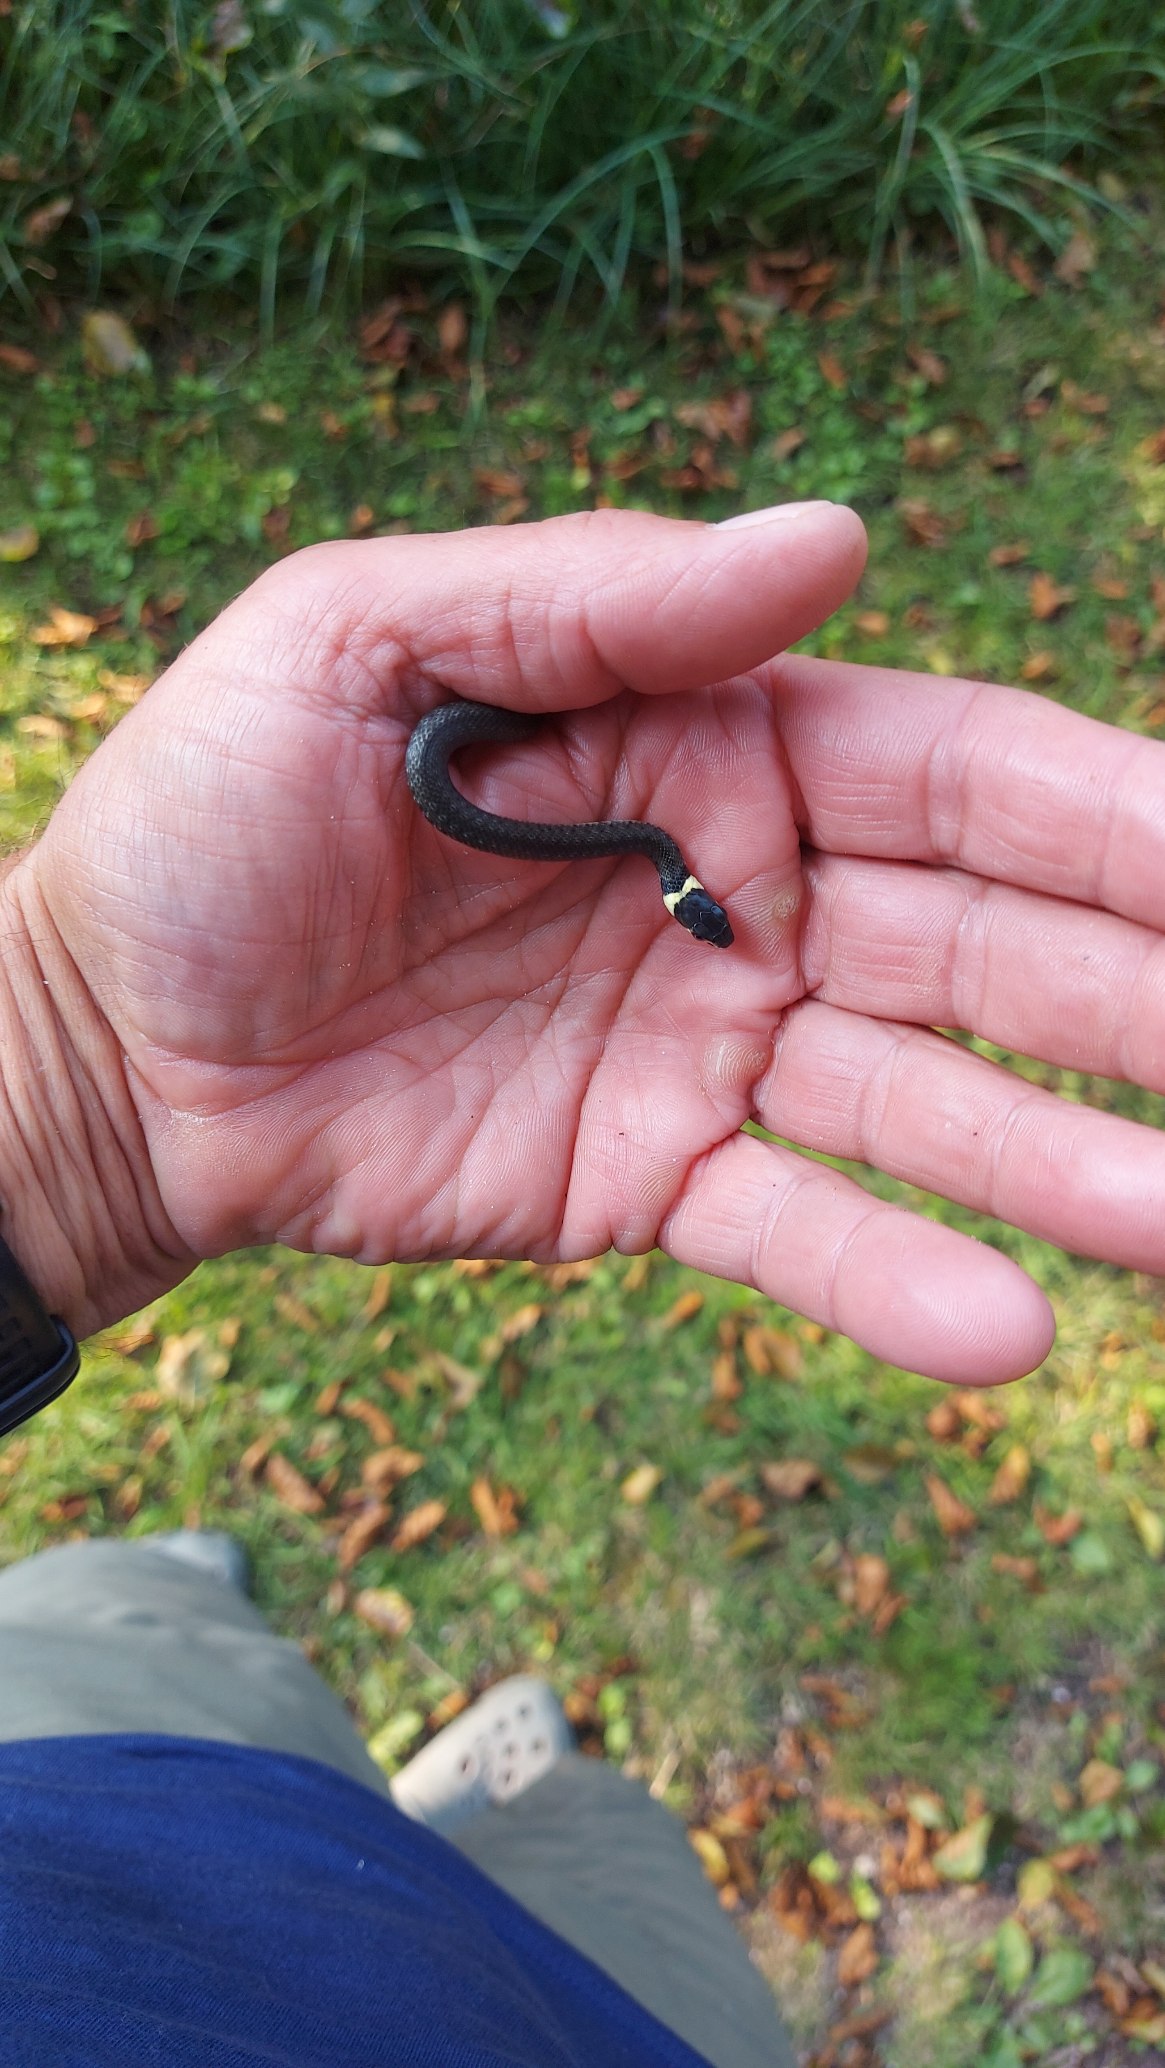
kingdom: Animalia
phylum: Chordata
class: Squamata
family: Colubridae
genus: Natrix
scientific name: Natrix natrix
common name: Snog
